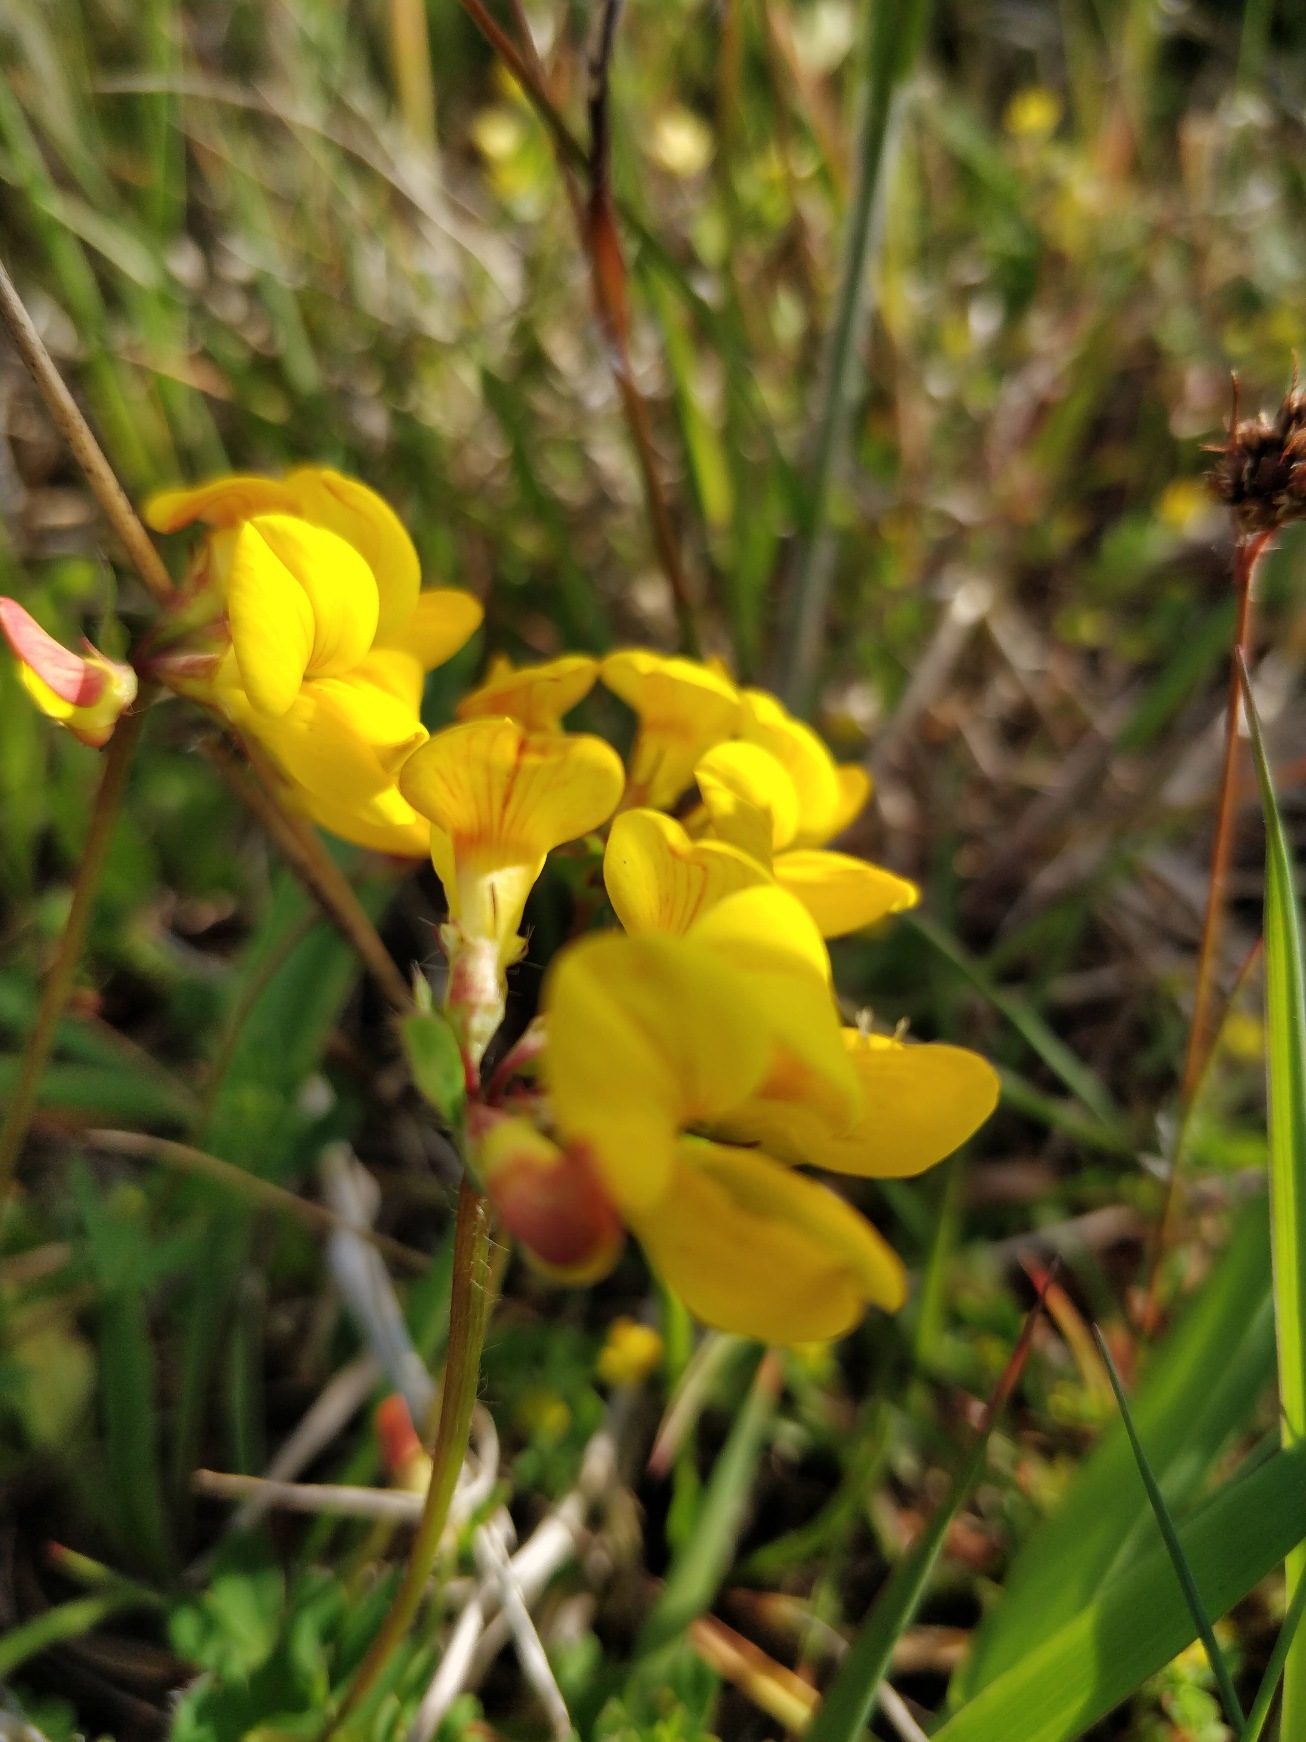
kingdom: Plantae
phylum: Tracheophyta
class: Magnoliopsida
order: Fabales
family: Fabaceae
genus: Lotus
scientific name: Lotus corniculatus
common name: Almindelig kællingetand
